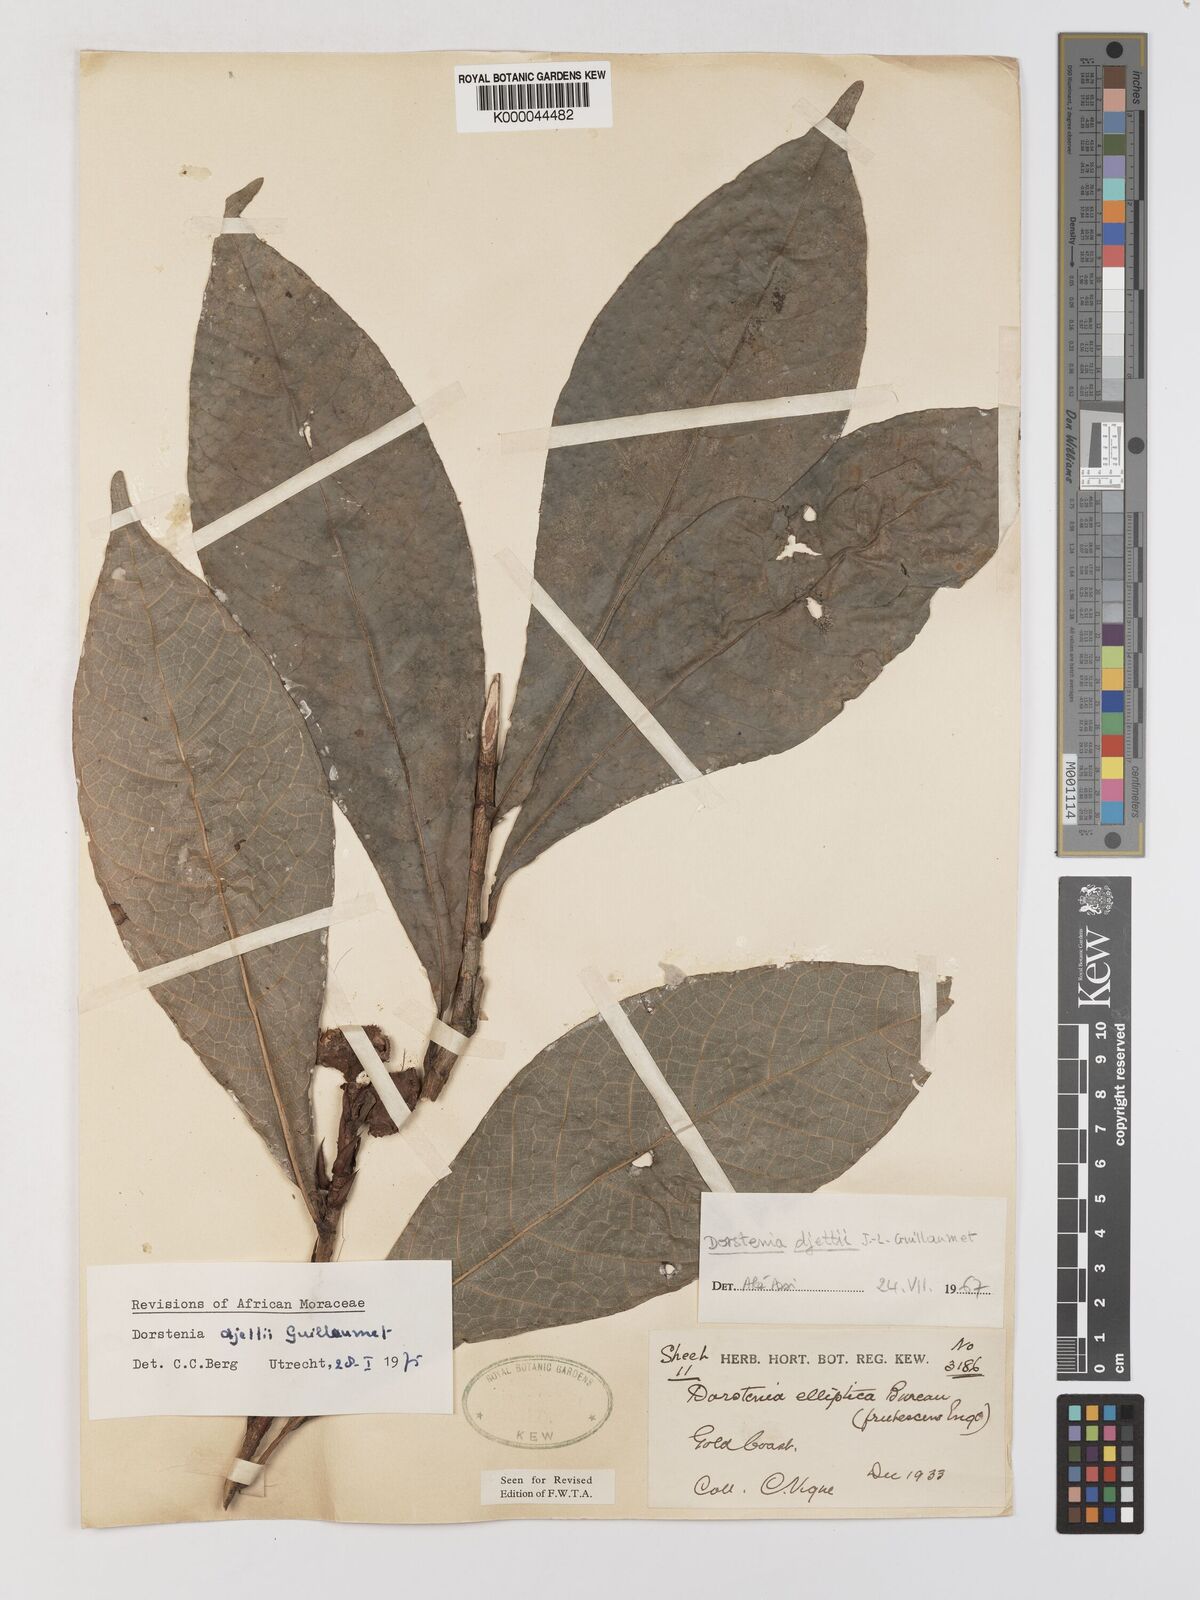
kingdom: Plantae
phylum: Tracheophyta
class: Magnoliopsida
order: Rosales
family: Moraceae
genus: Dorstenia
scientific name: Dorstenia djettii
